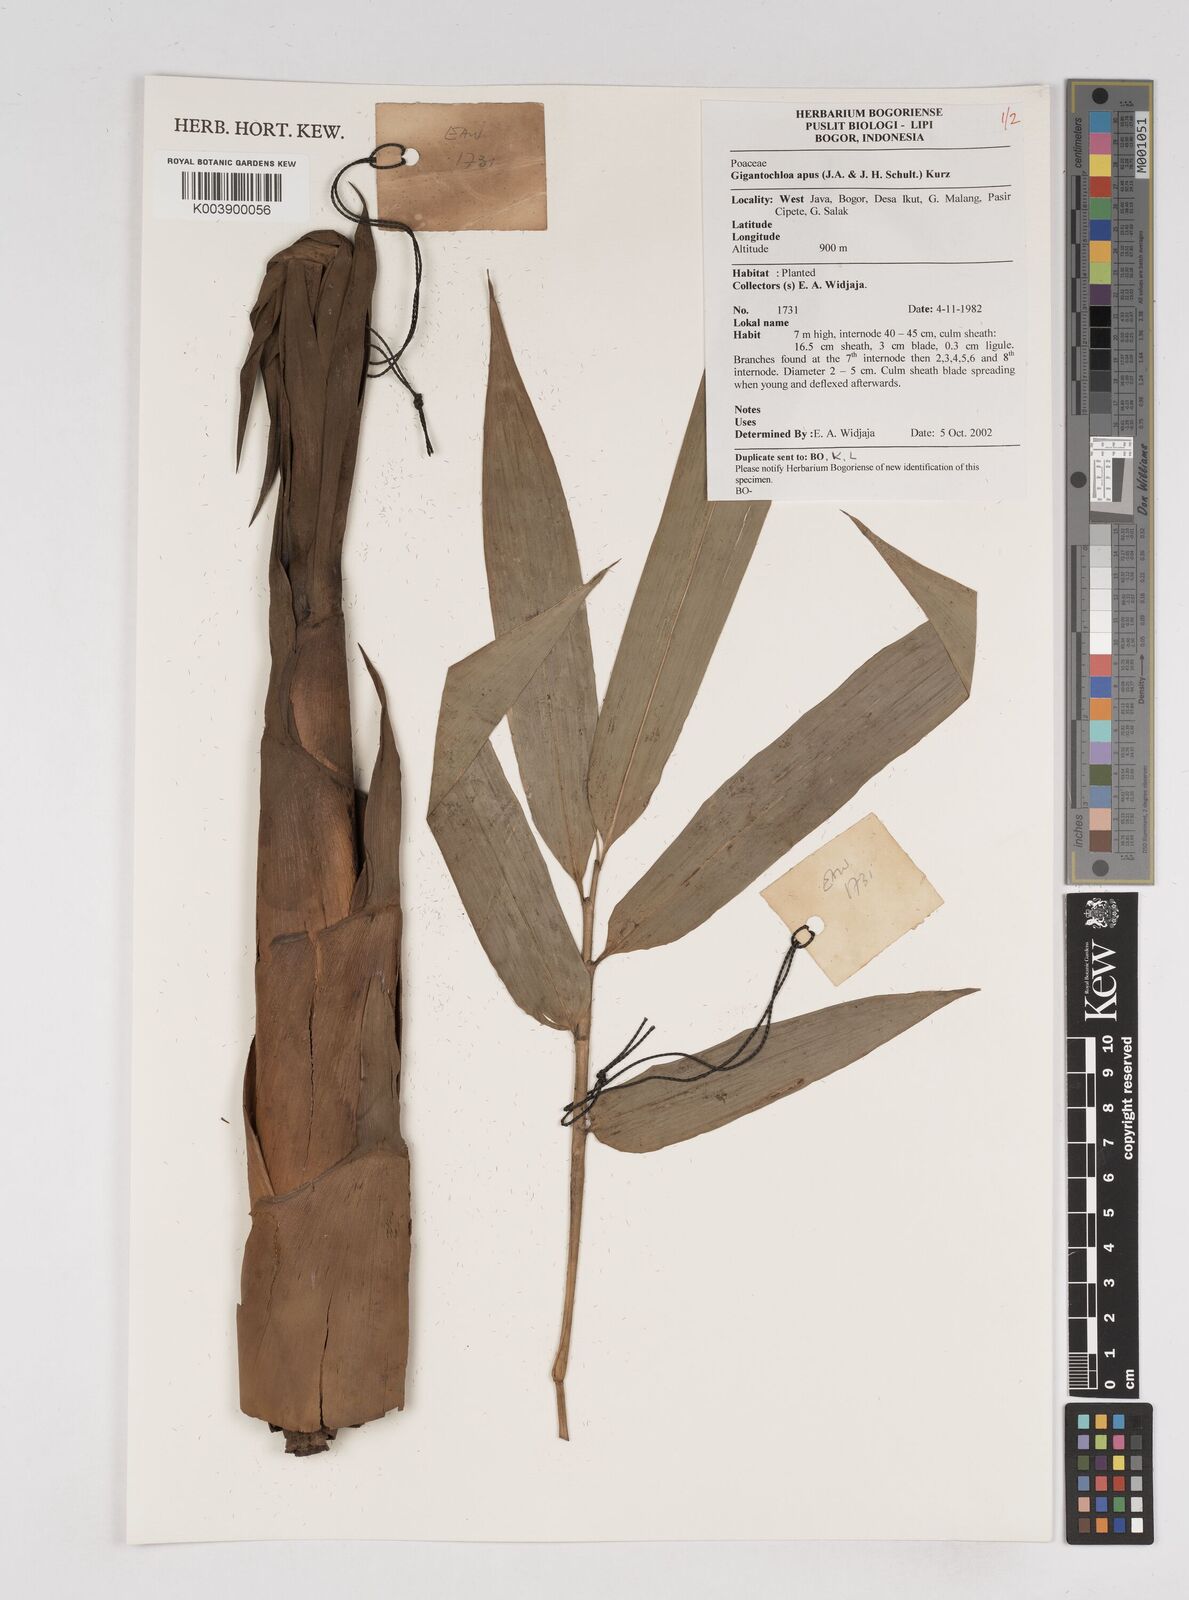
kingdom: Plantae
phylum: Tracheophyta
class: Liliopsida
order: Poales
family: Poaceae
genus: Gigantochloa
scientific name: Gigantochloa apus
